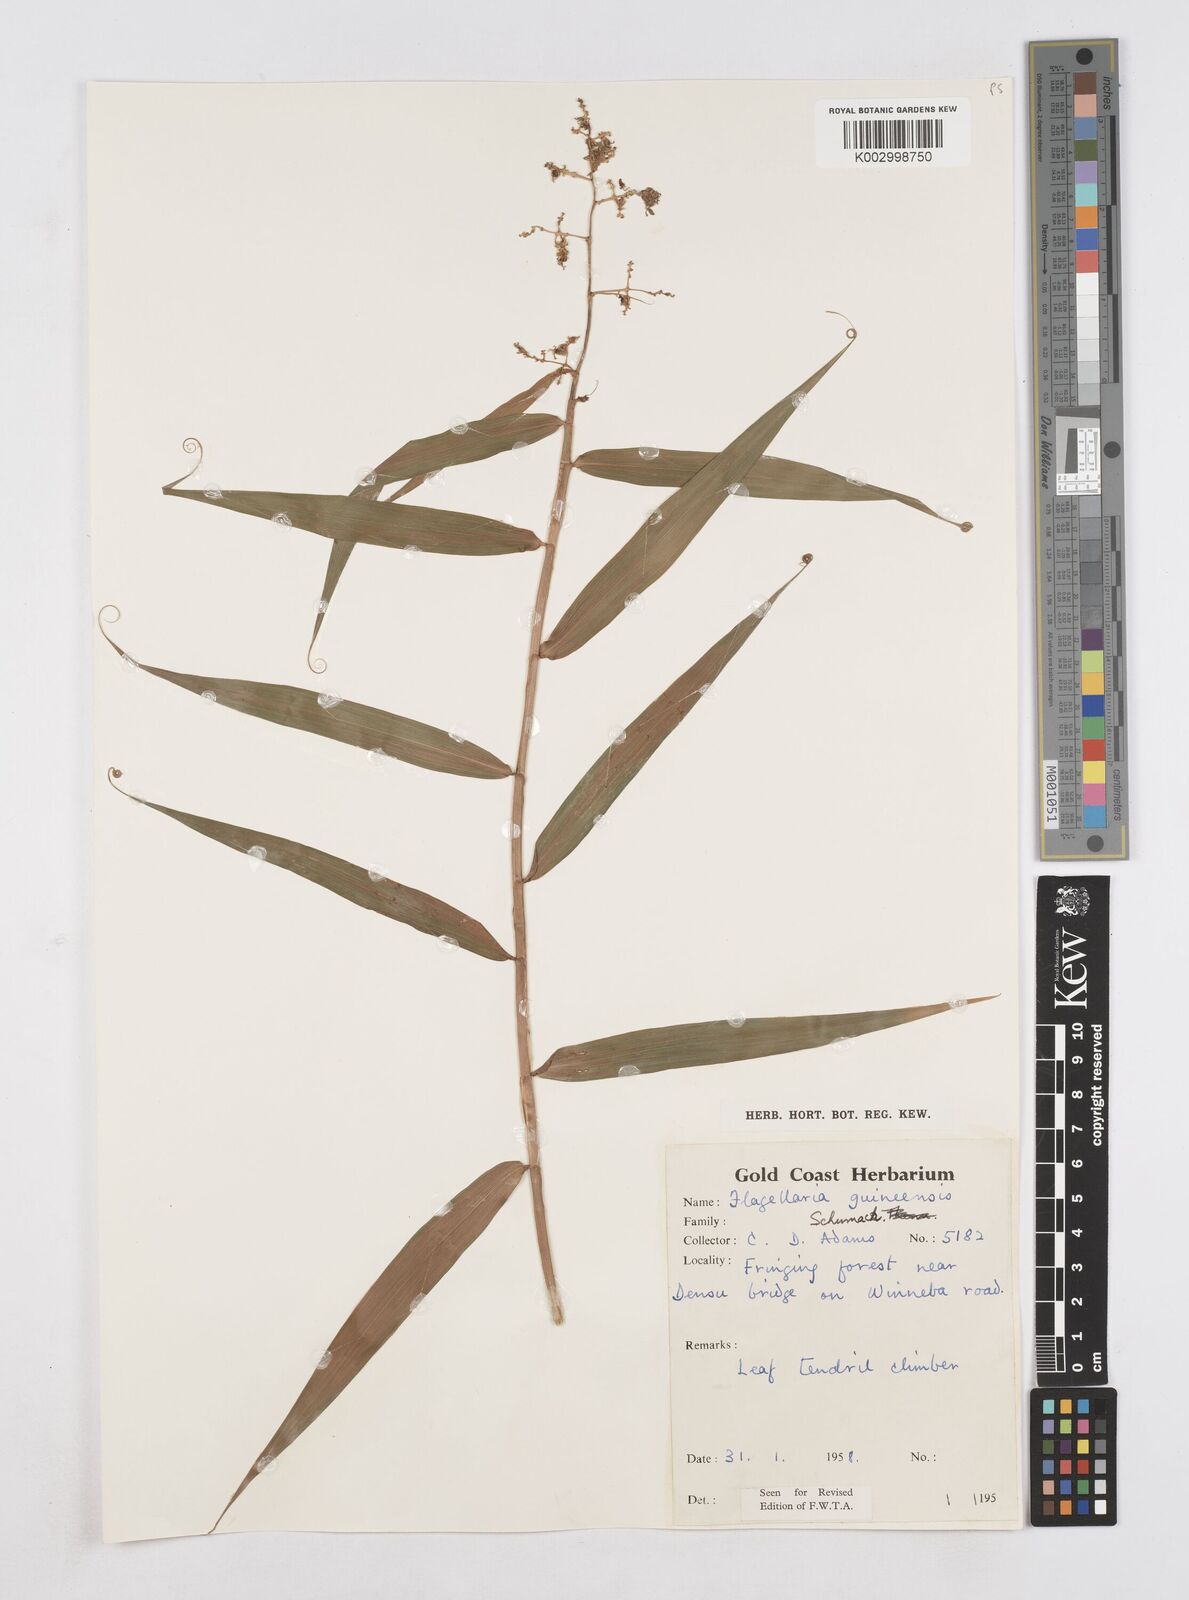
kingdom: Plantae
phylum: Tracheophyta
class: Liliopsida
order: Poales
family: Flagellariaceae
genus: Flagellaria
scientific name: Flagellaria guineensis
